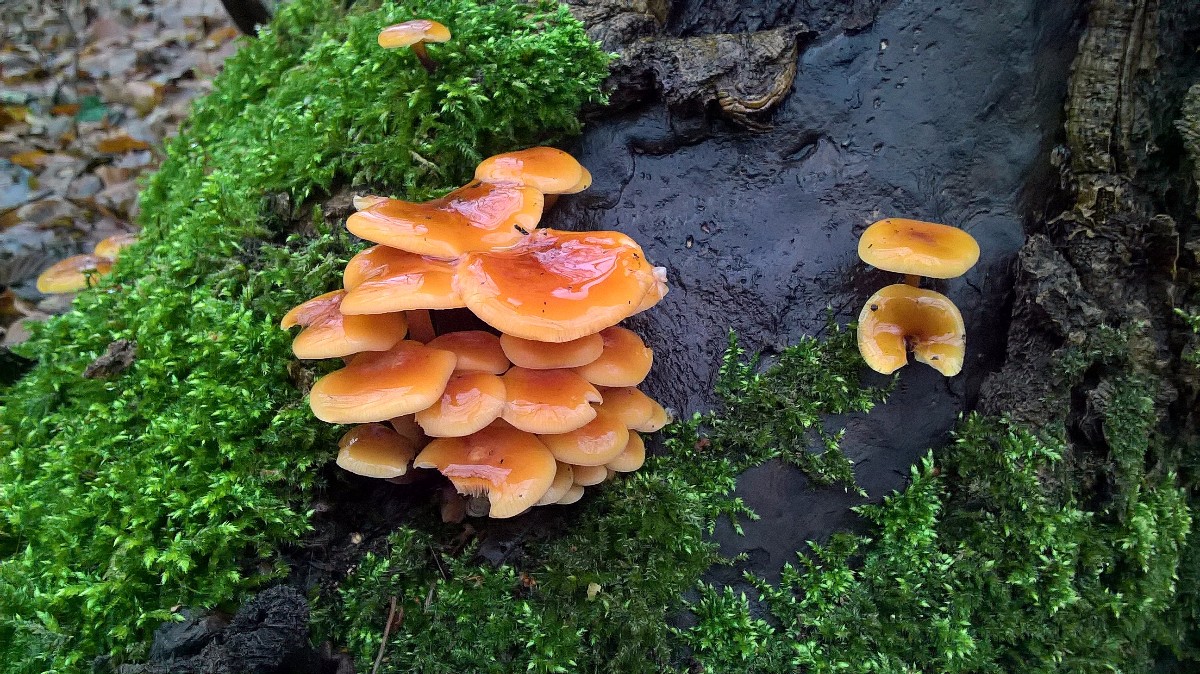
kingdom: Fungi
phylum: Basidiomycota
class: Agaricomycetes
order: Agaricales
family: Physalacriaceae
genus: Flammulina
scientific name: Flammulina velutipes
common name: gul fløjlsfod
